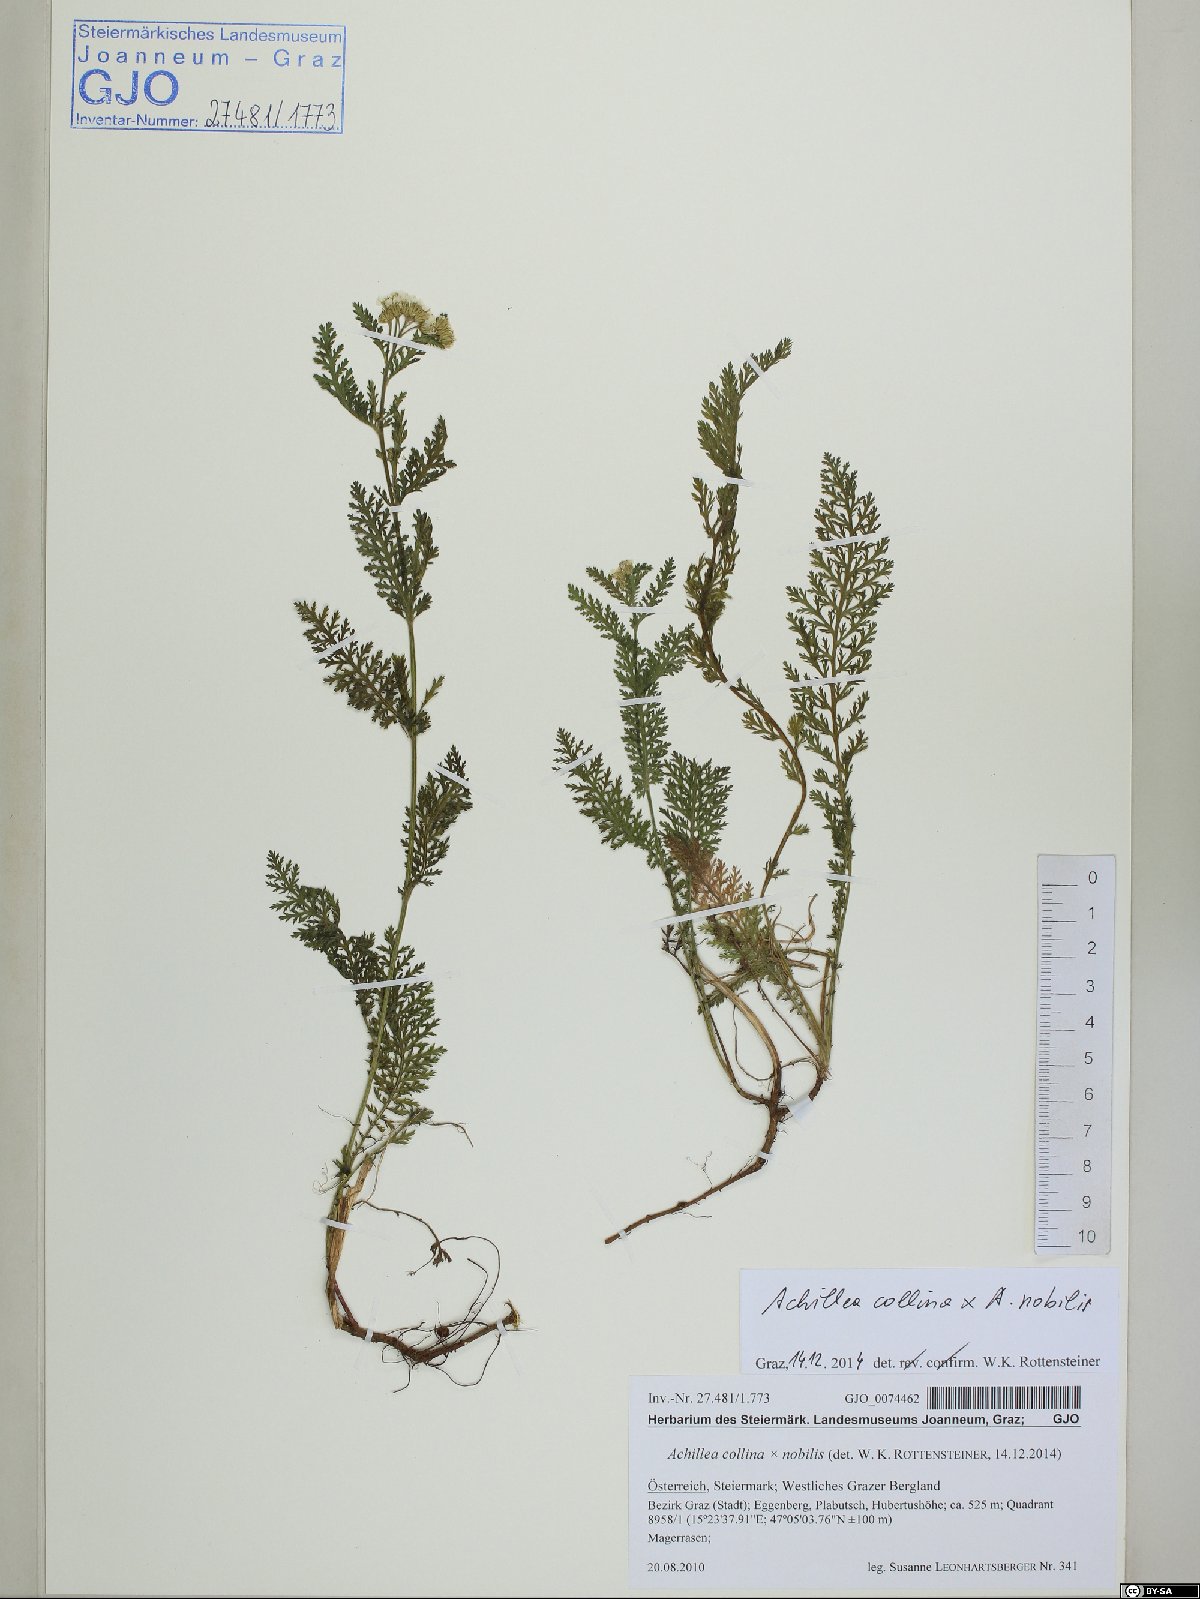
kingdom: Plantae
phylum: Tracheophyta
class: Magnoliopsida
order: Asterales
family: Asteraceae
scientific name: Asteraceae
